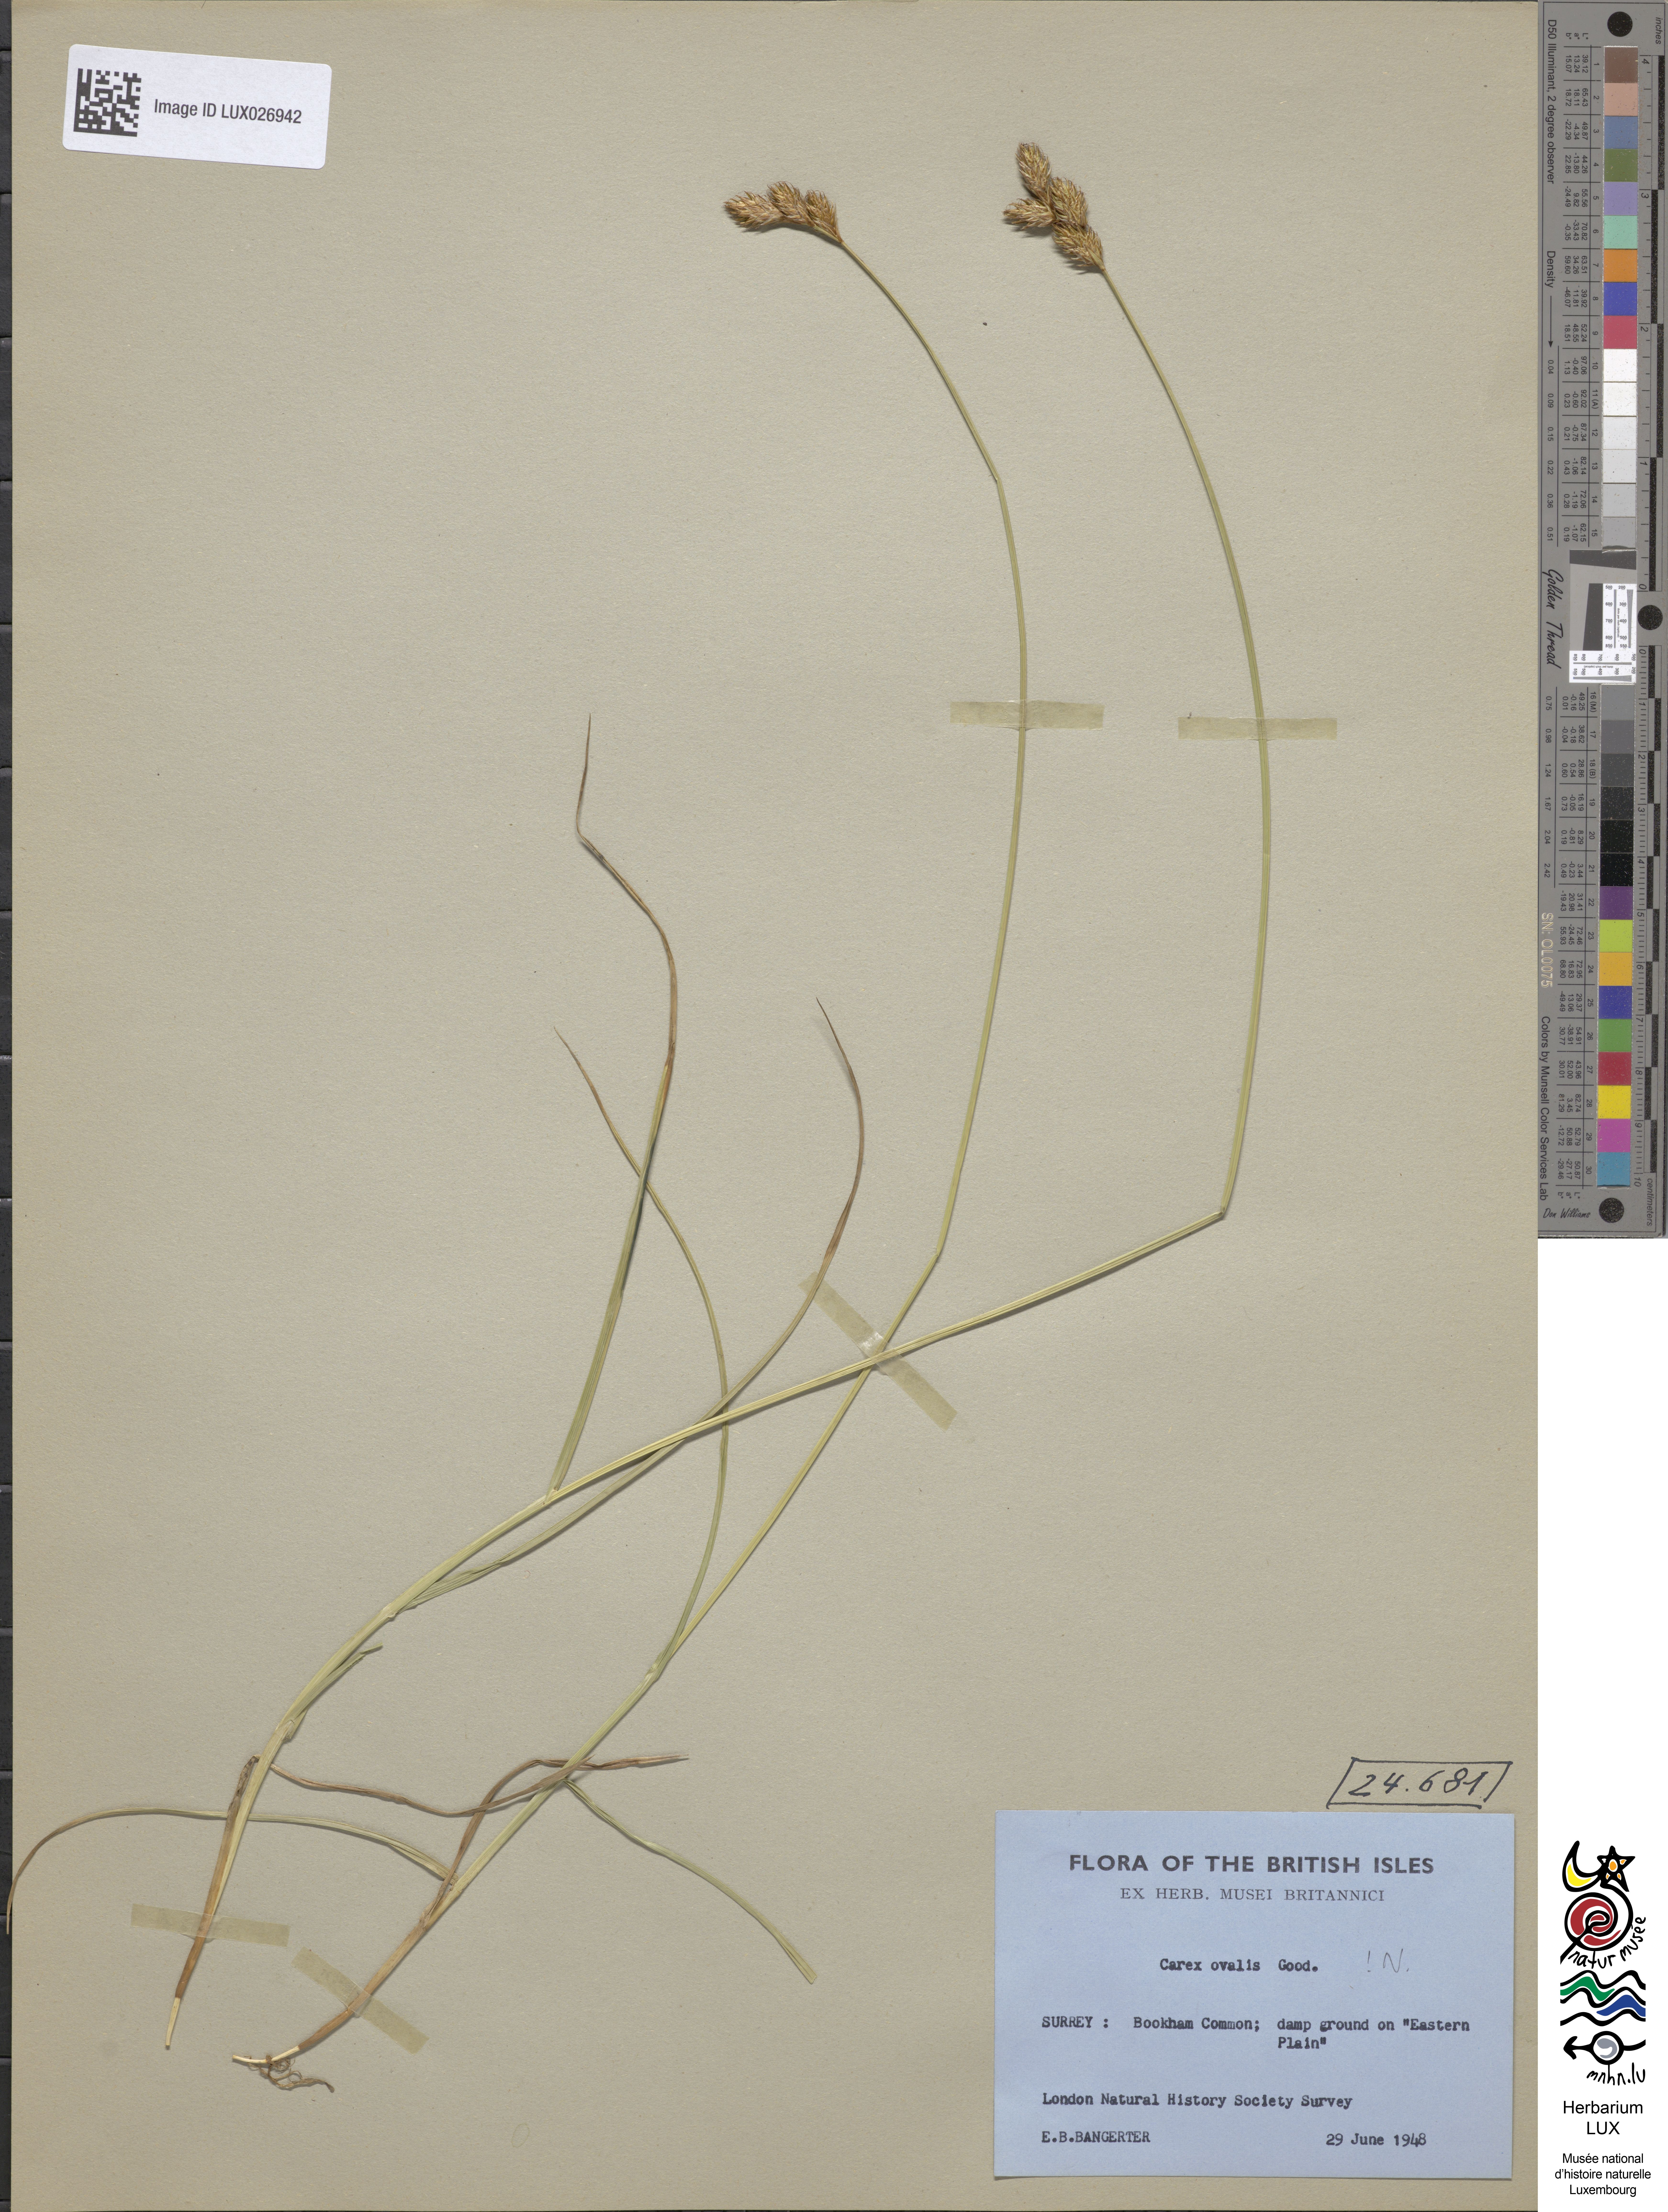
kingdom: Plantae
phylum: Tracheophyta
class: Liliopsida
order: Poales
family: Cyperaceae
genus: Carex
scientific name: Carex leporina
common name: Oval sedge
